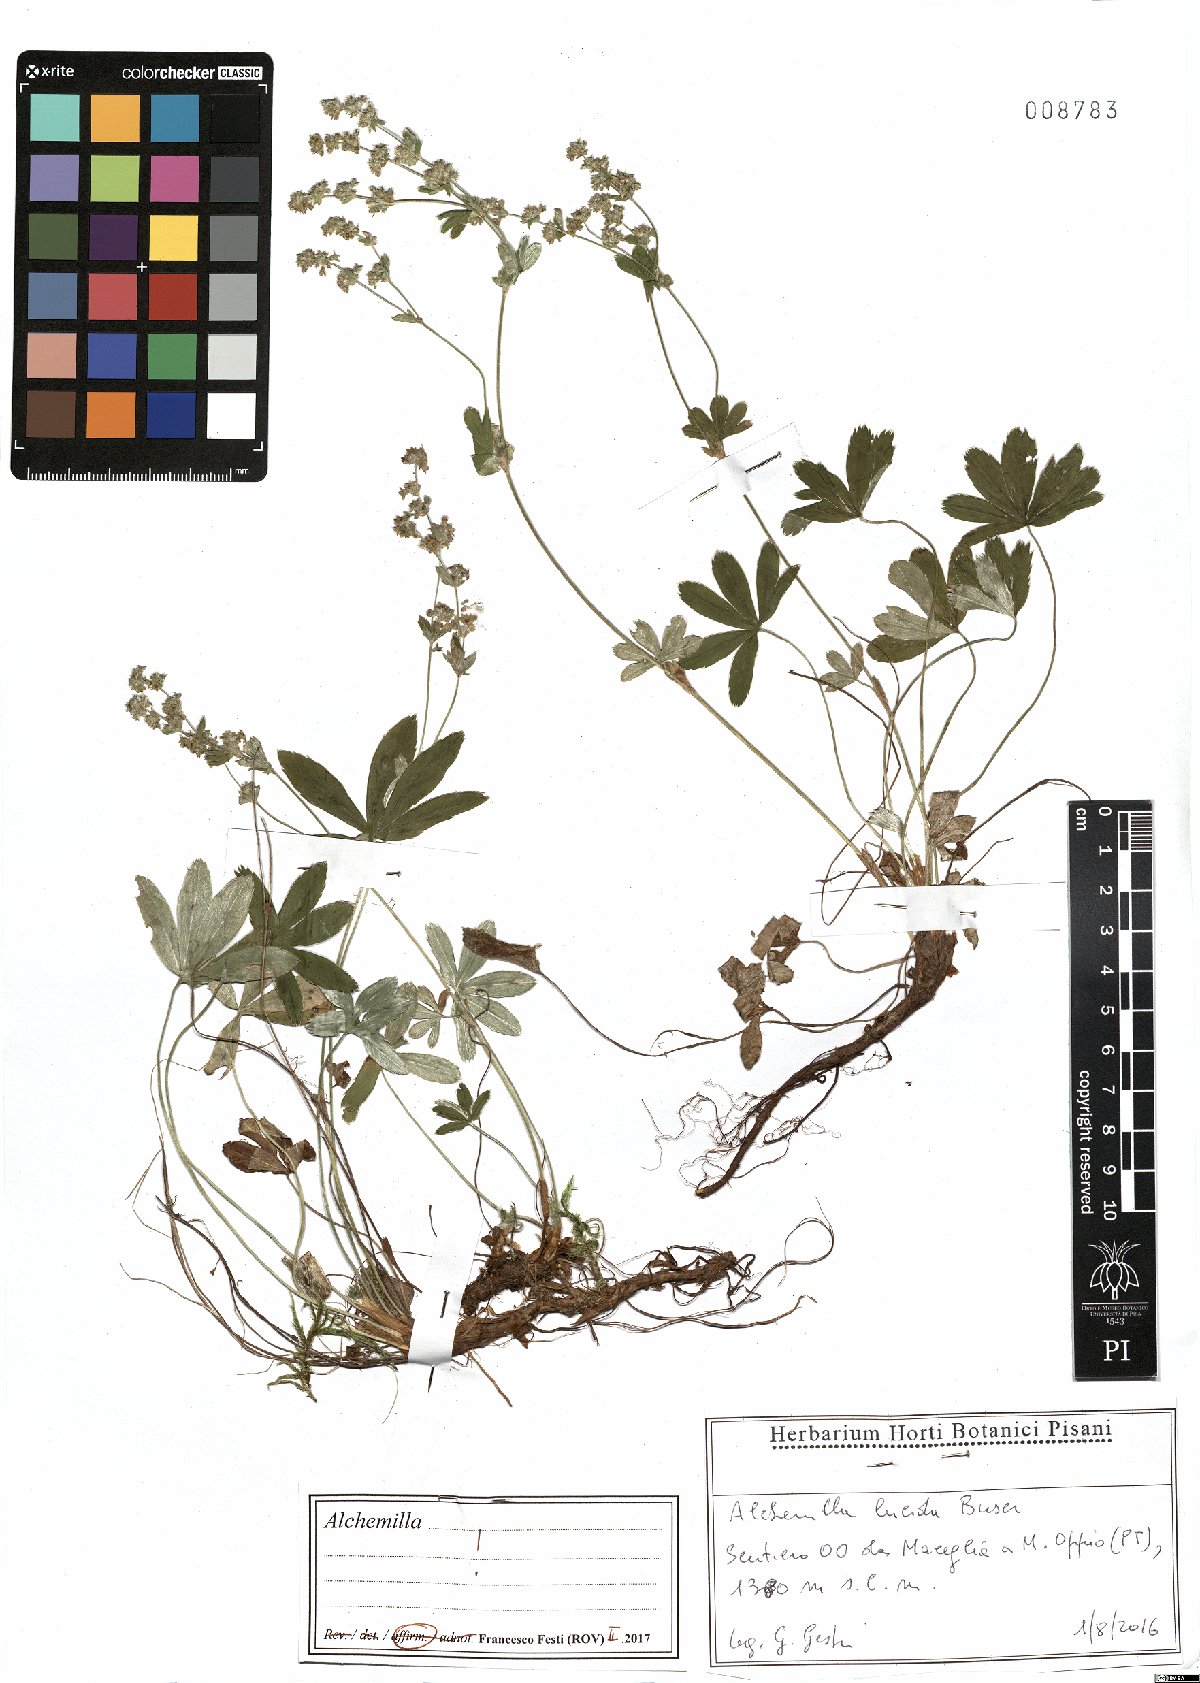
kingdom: Plantae
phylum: Tracheophyta
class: Magnoliopsida
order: Rosales
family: Rosaceae
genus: Alchemilla
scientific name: Alchemilla lucida
